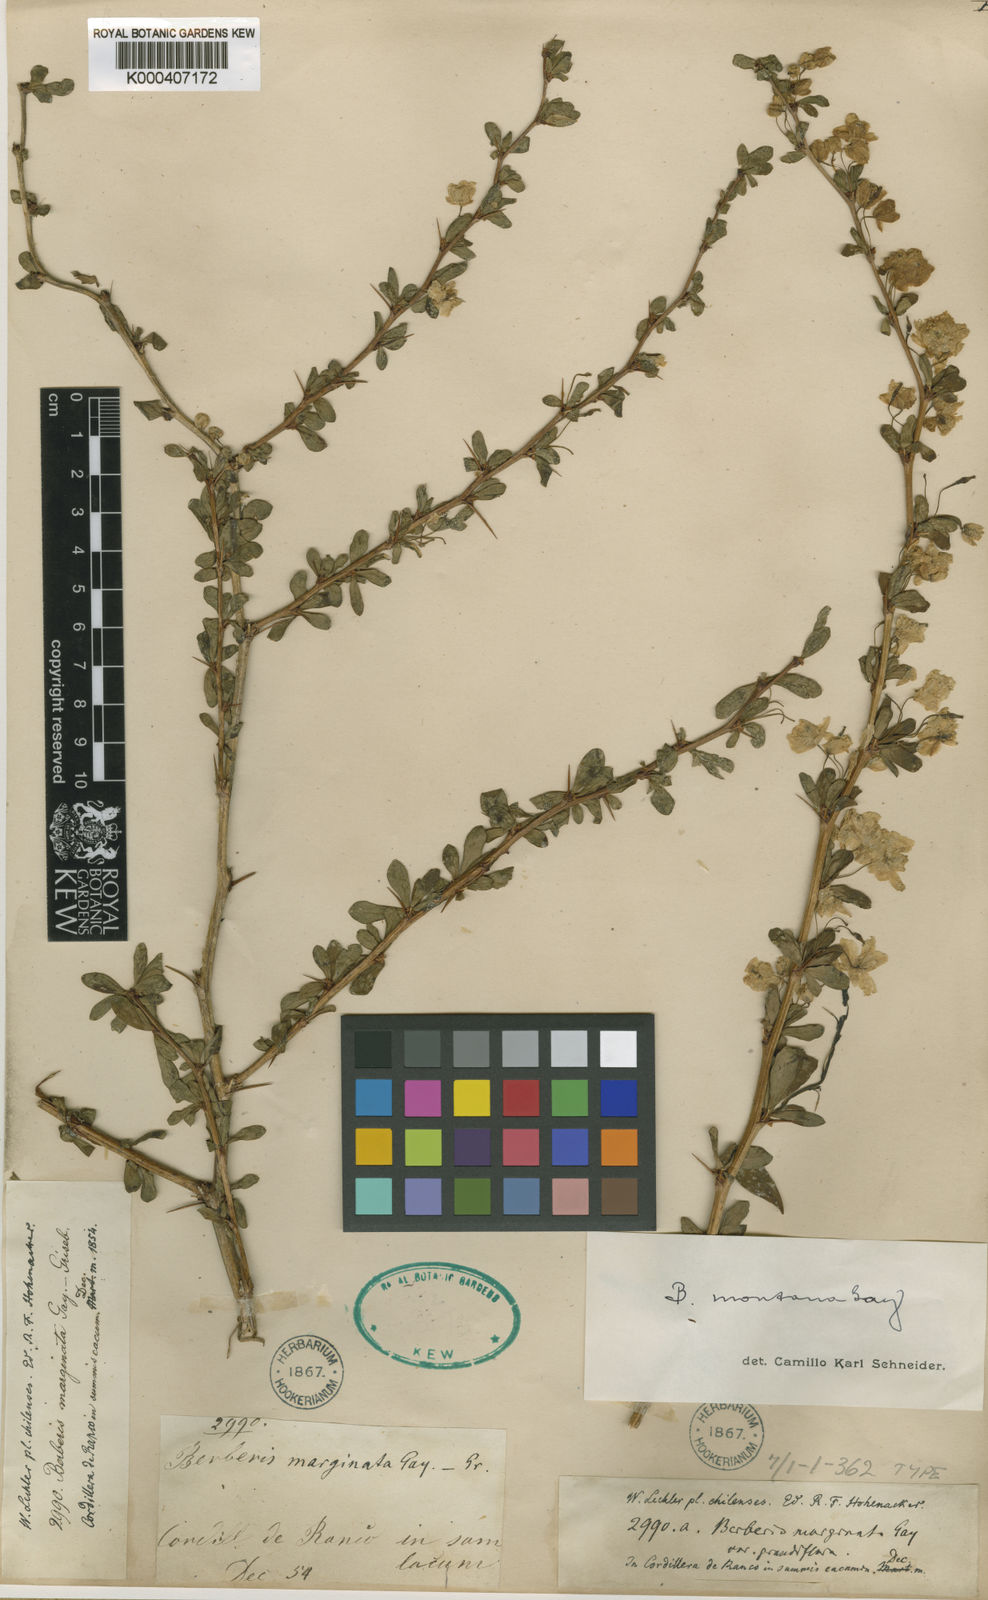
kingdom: Plantae
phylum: Tracheophyta
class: Magnoliopsida
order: Ranunculales
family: Berberidaceae
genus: Berberis
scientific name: Berberis montana
